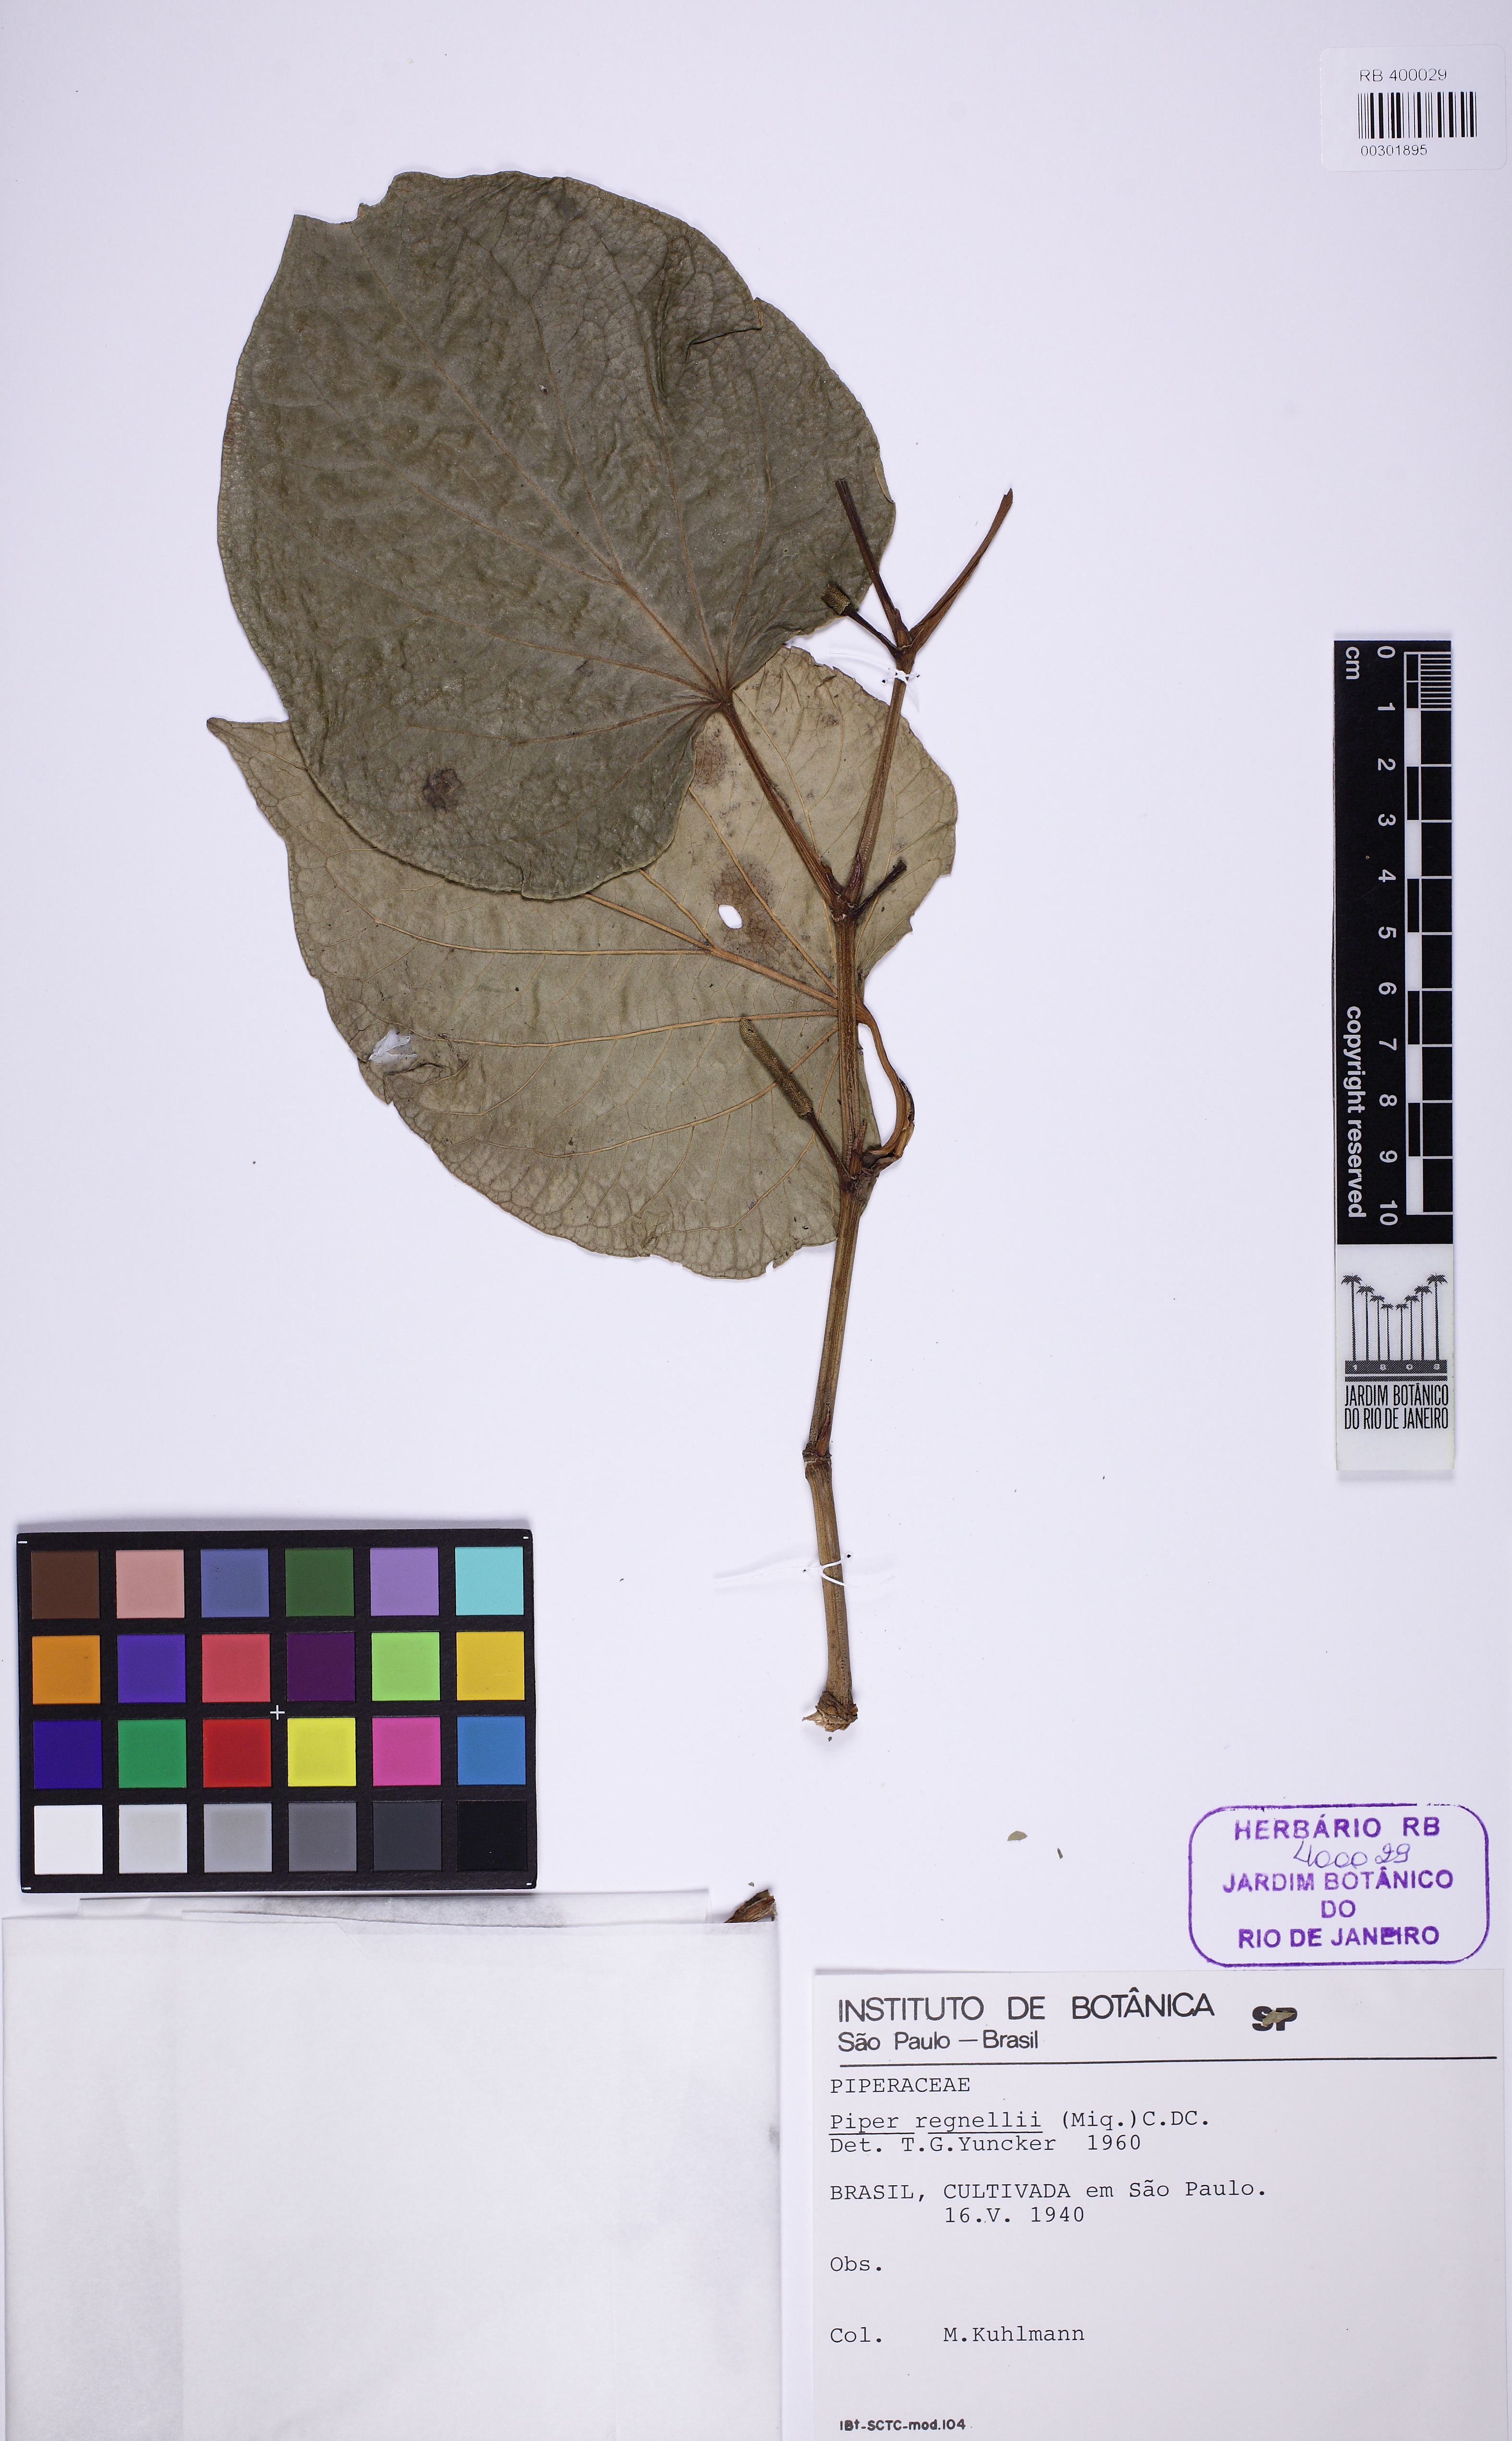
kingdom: Plantae
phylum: Tracheophyta
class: Magnoliopsida
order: Piperales
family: Piperaceae
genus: Piper
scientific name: Piper regnellii
